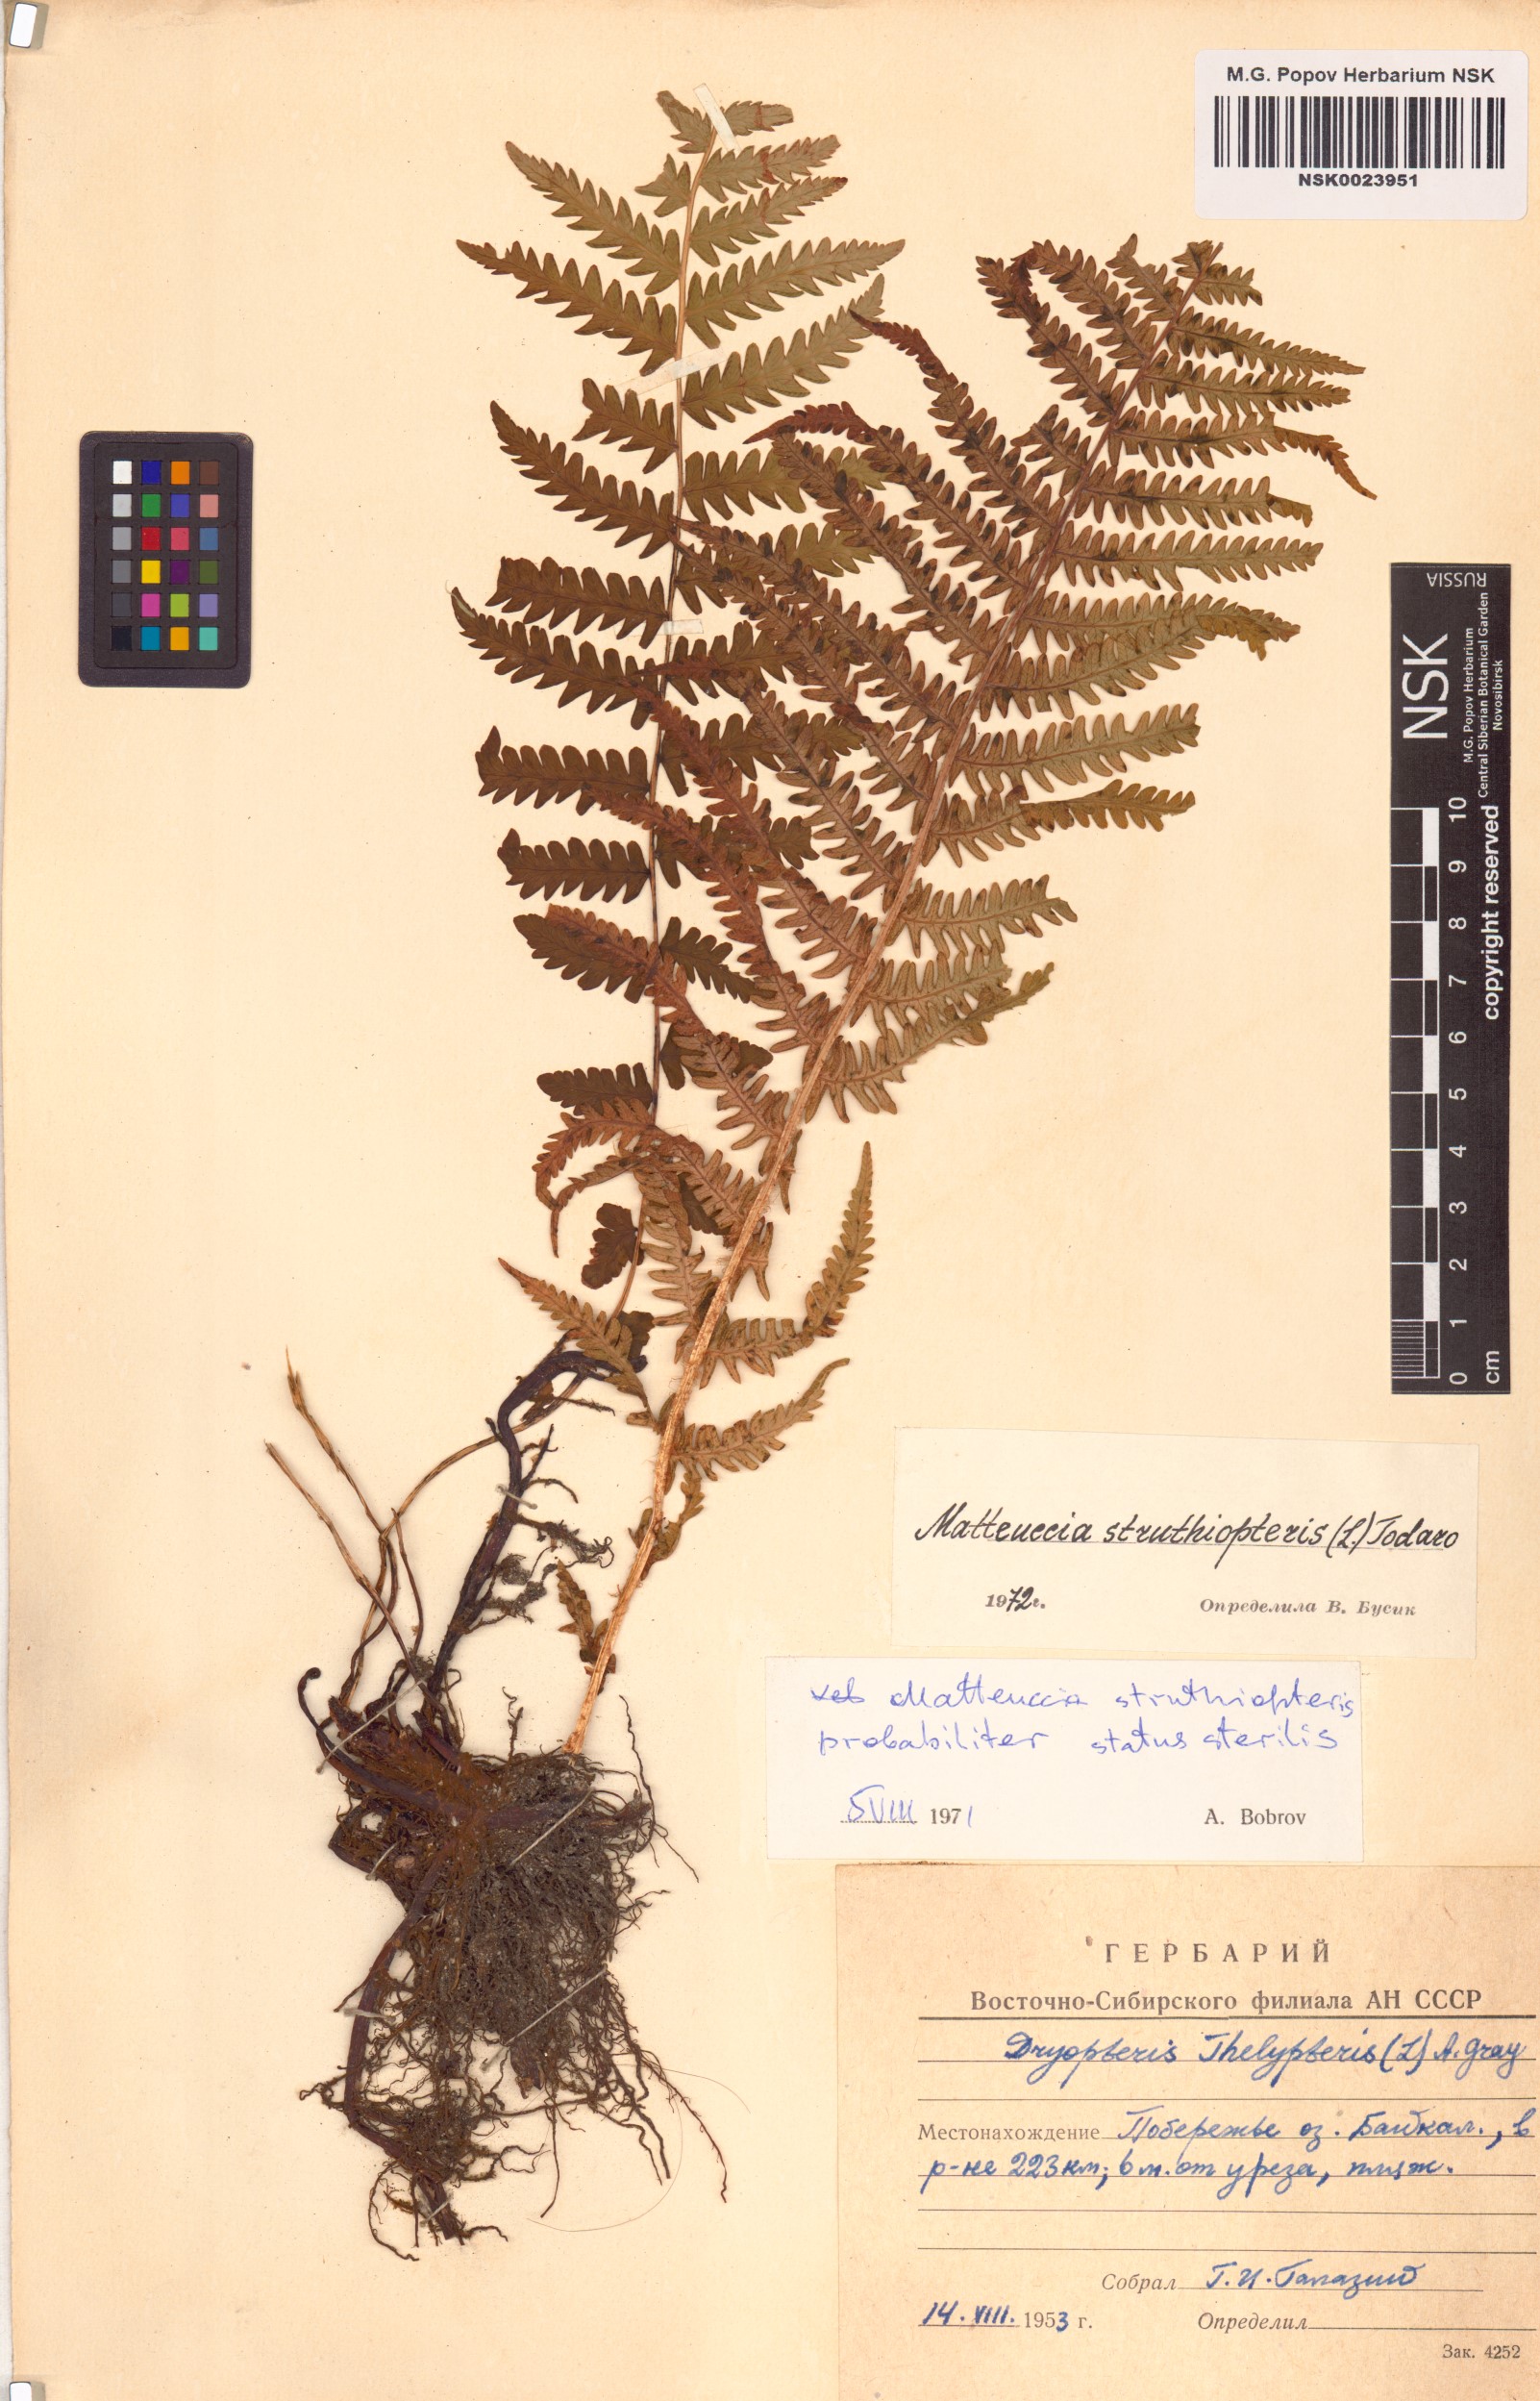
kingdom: Plantae
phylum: Tracheophyta
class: Polypodiopsida
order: Polypodiales
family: Onocleaceae
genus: Matteuccia
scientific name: Matteuccia struthiopteris
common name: Ostrich fern
